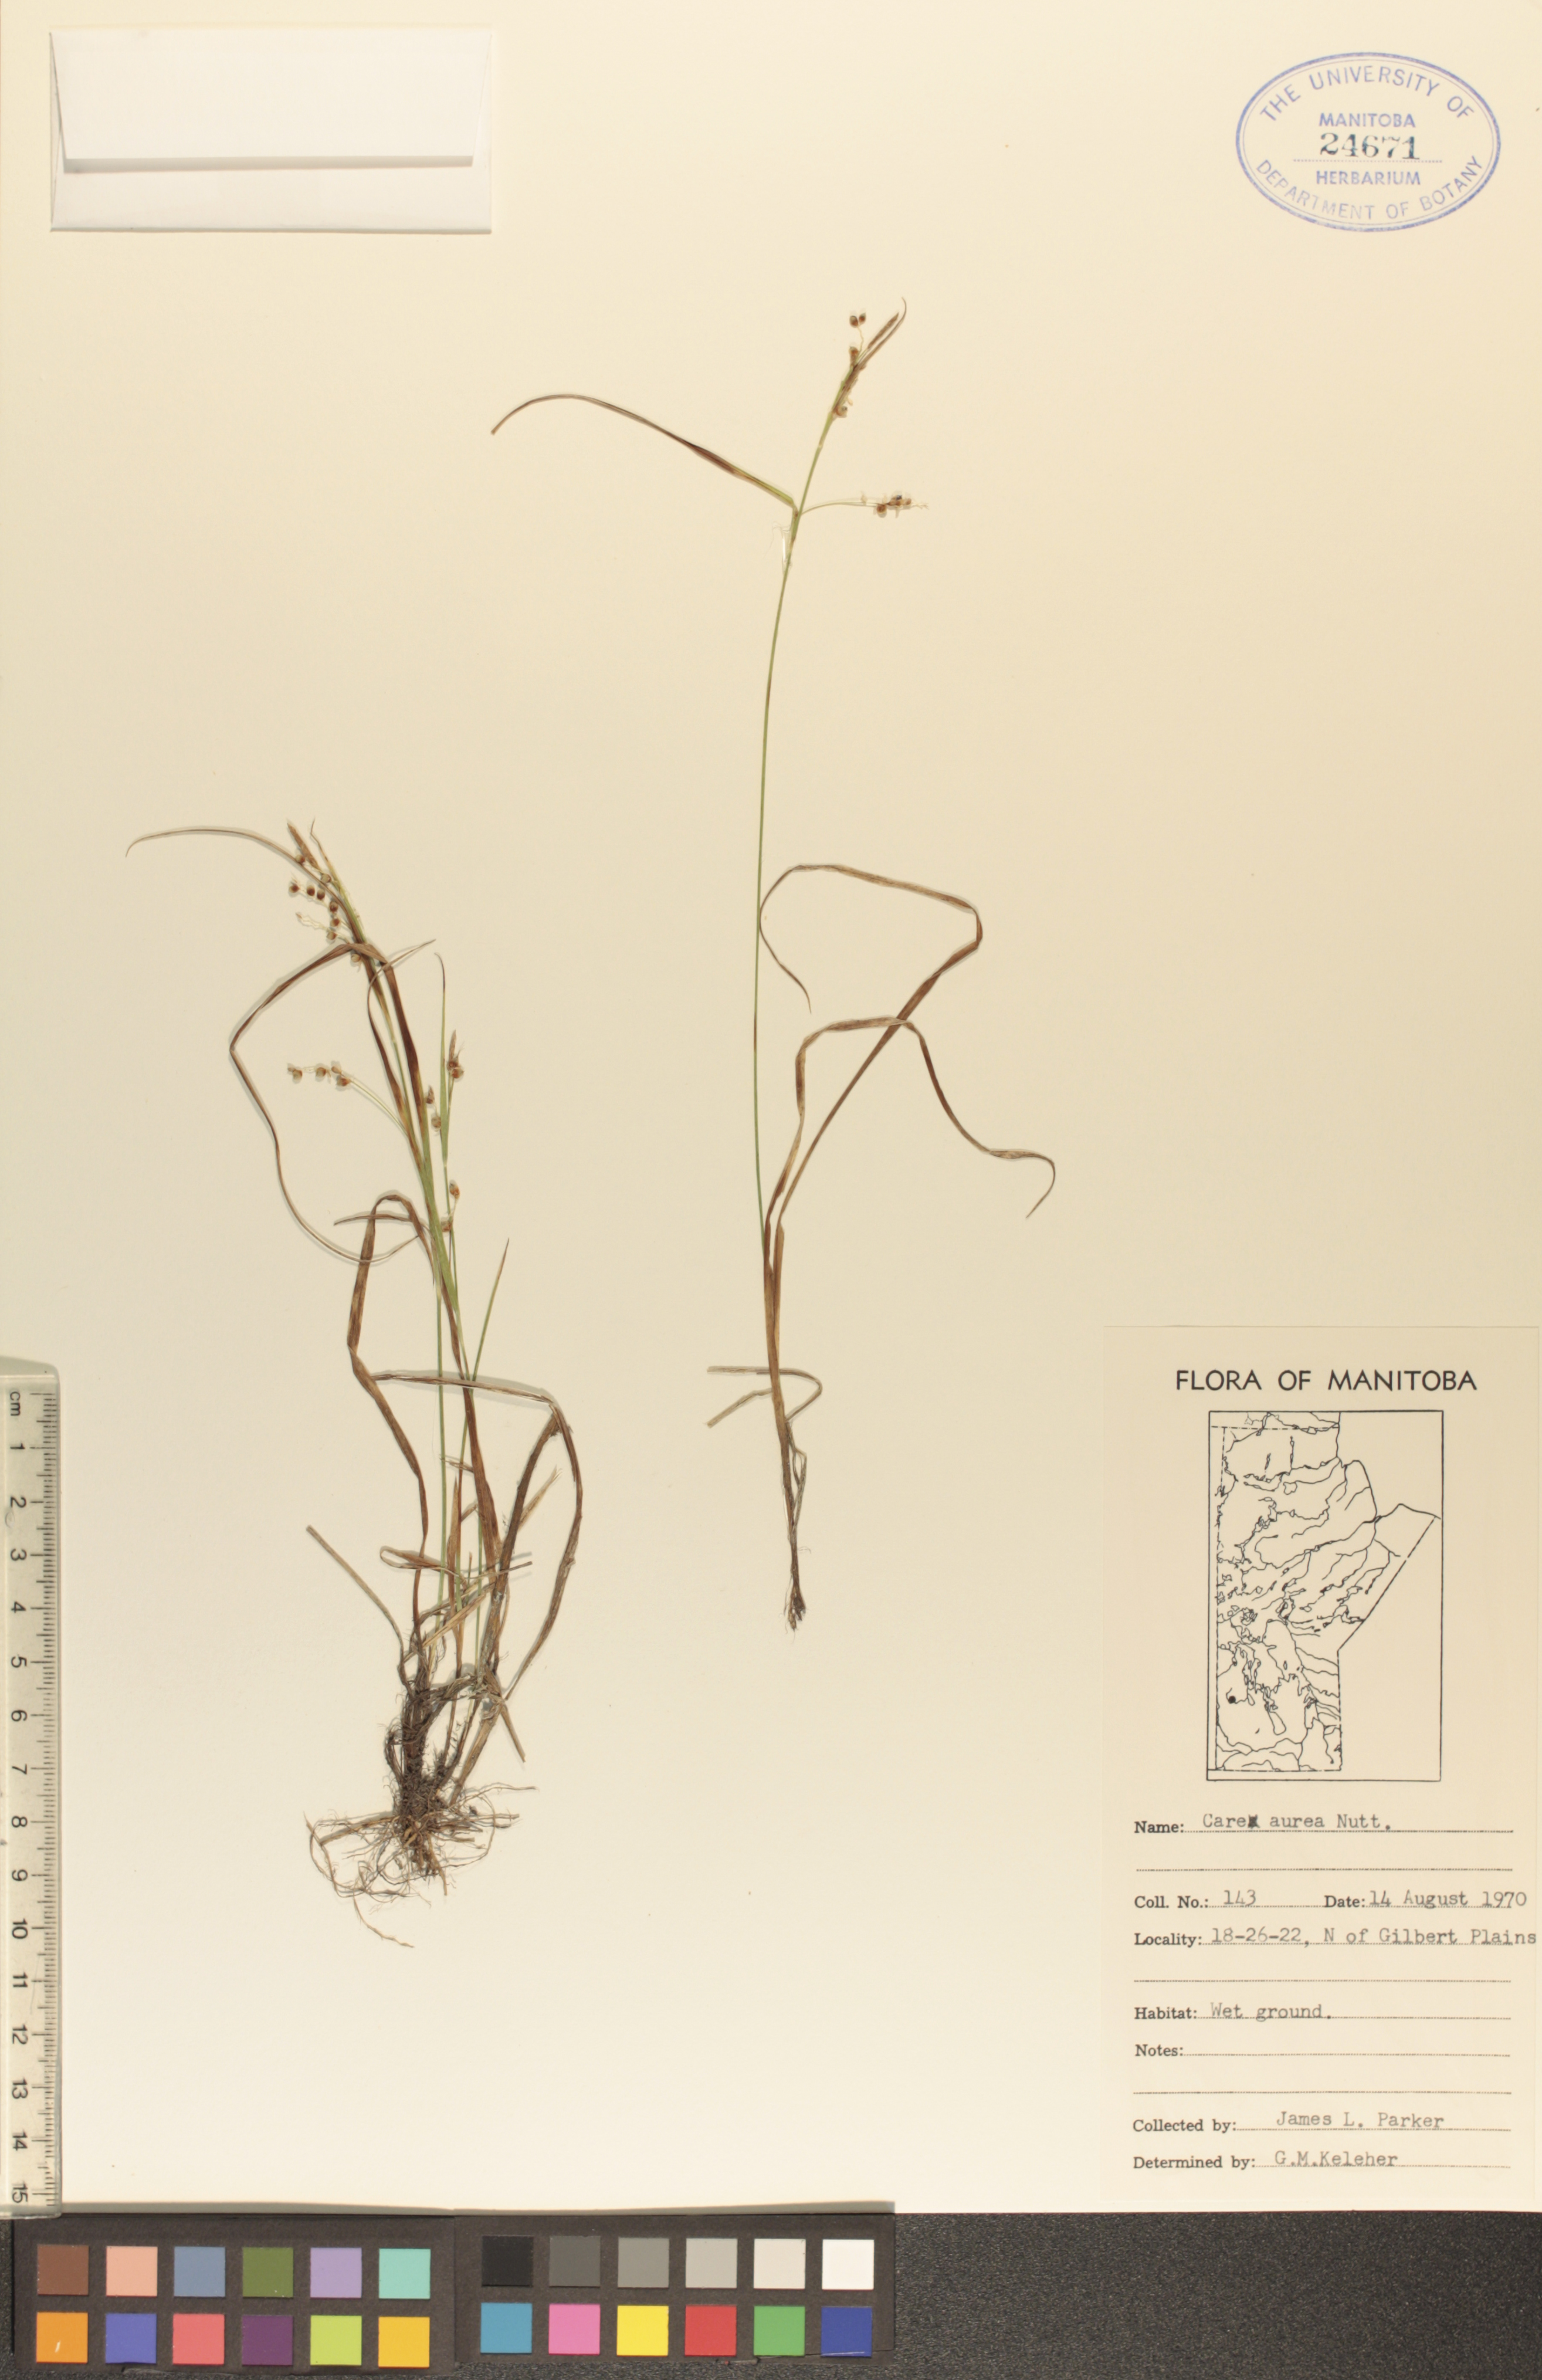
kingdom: Plantae
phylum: Tracheophyta
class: Liliopsida
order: Poales
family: Cyperaceae
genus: Carex
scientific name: Carex aurea
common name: Golden sedge
